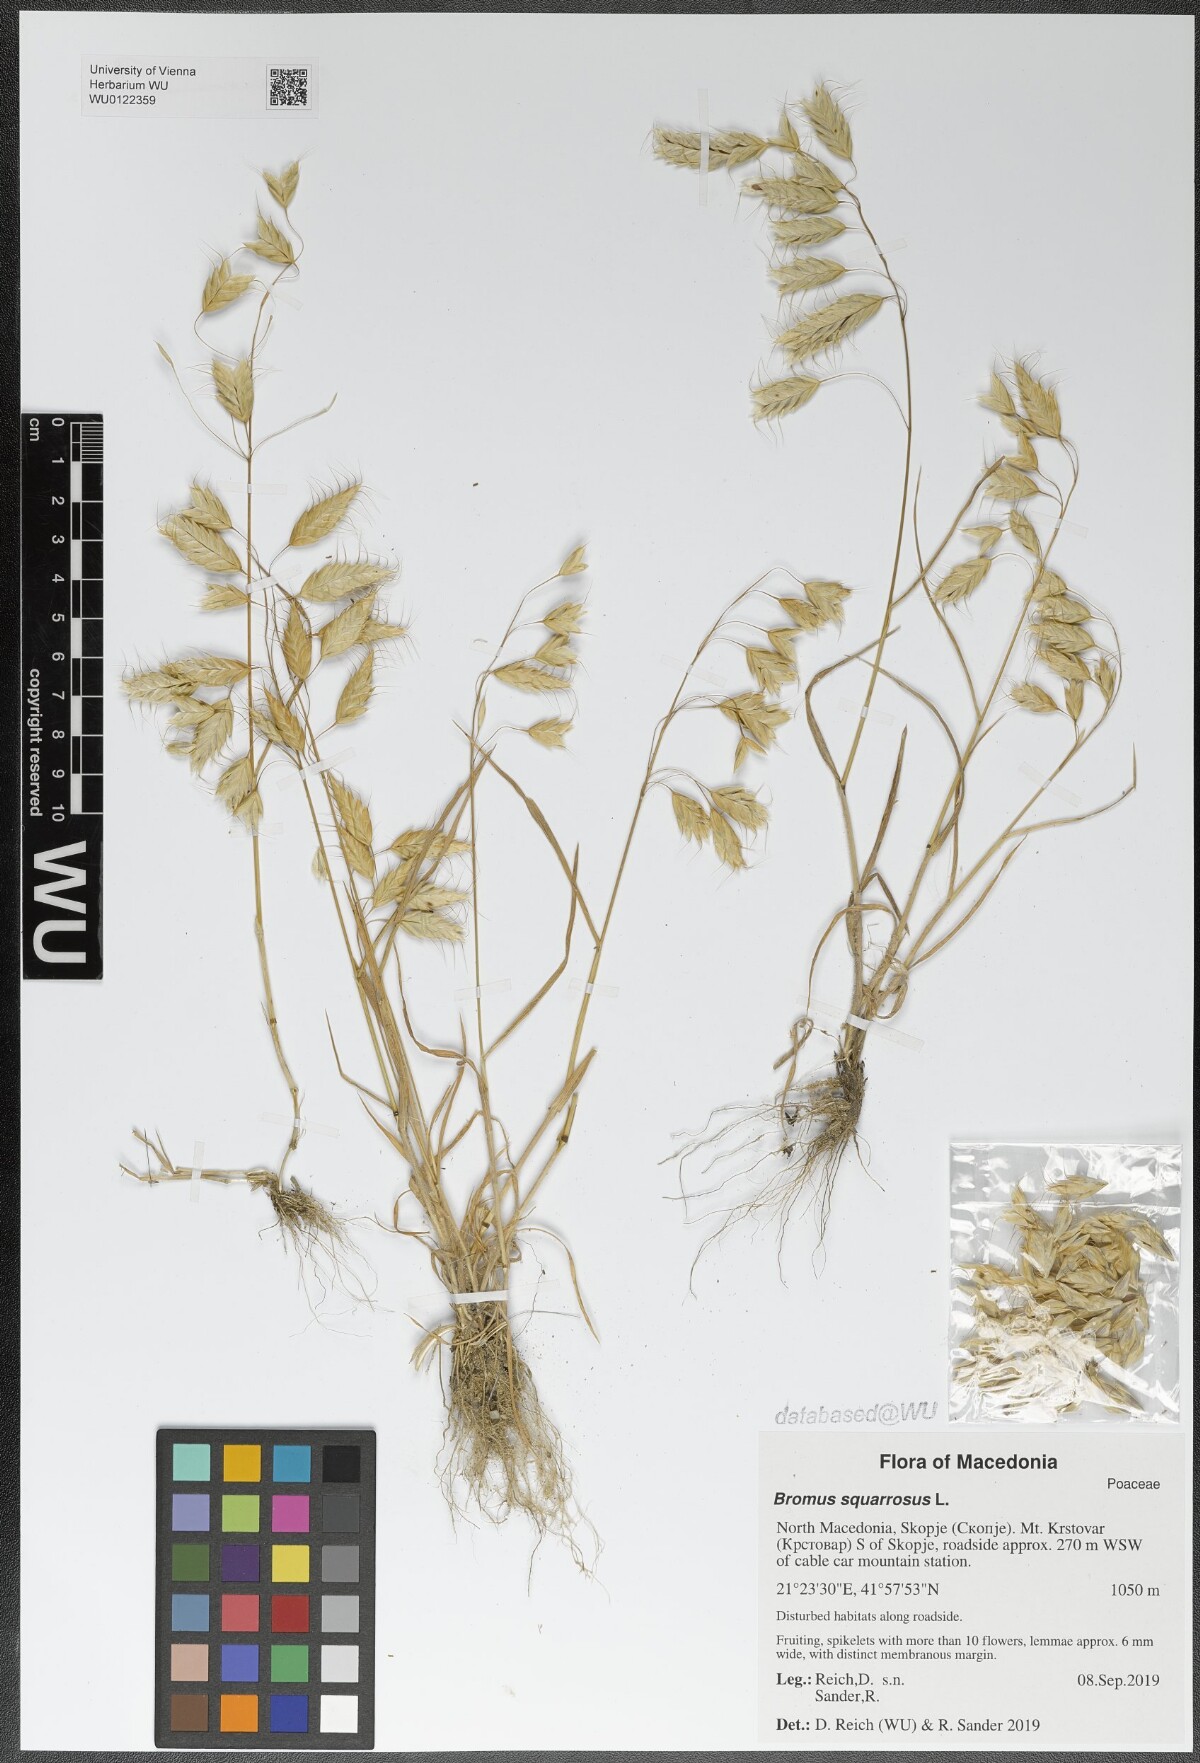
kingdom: Plantae
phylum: Tracheophyta
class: Liliopsida
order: Poales
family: Poaceae
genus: Bromus
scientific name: Bromus squarrosus
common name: Corn brome
